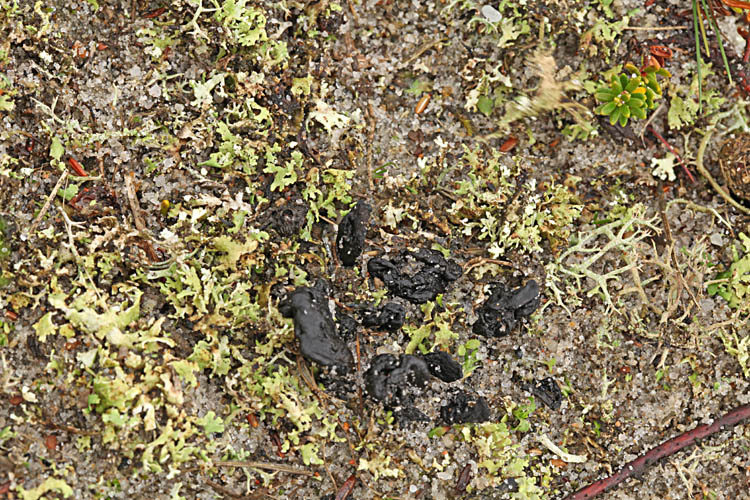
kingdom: Fungi
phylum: Ascomycota
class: Geoglossomycetes
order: Geoglossales
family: Geoglossaceae
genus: Sabuloglossum
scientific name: Sabuloglossum arenarium
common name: klit-jordtunge
